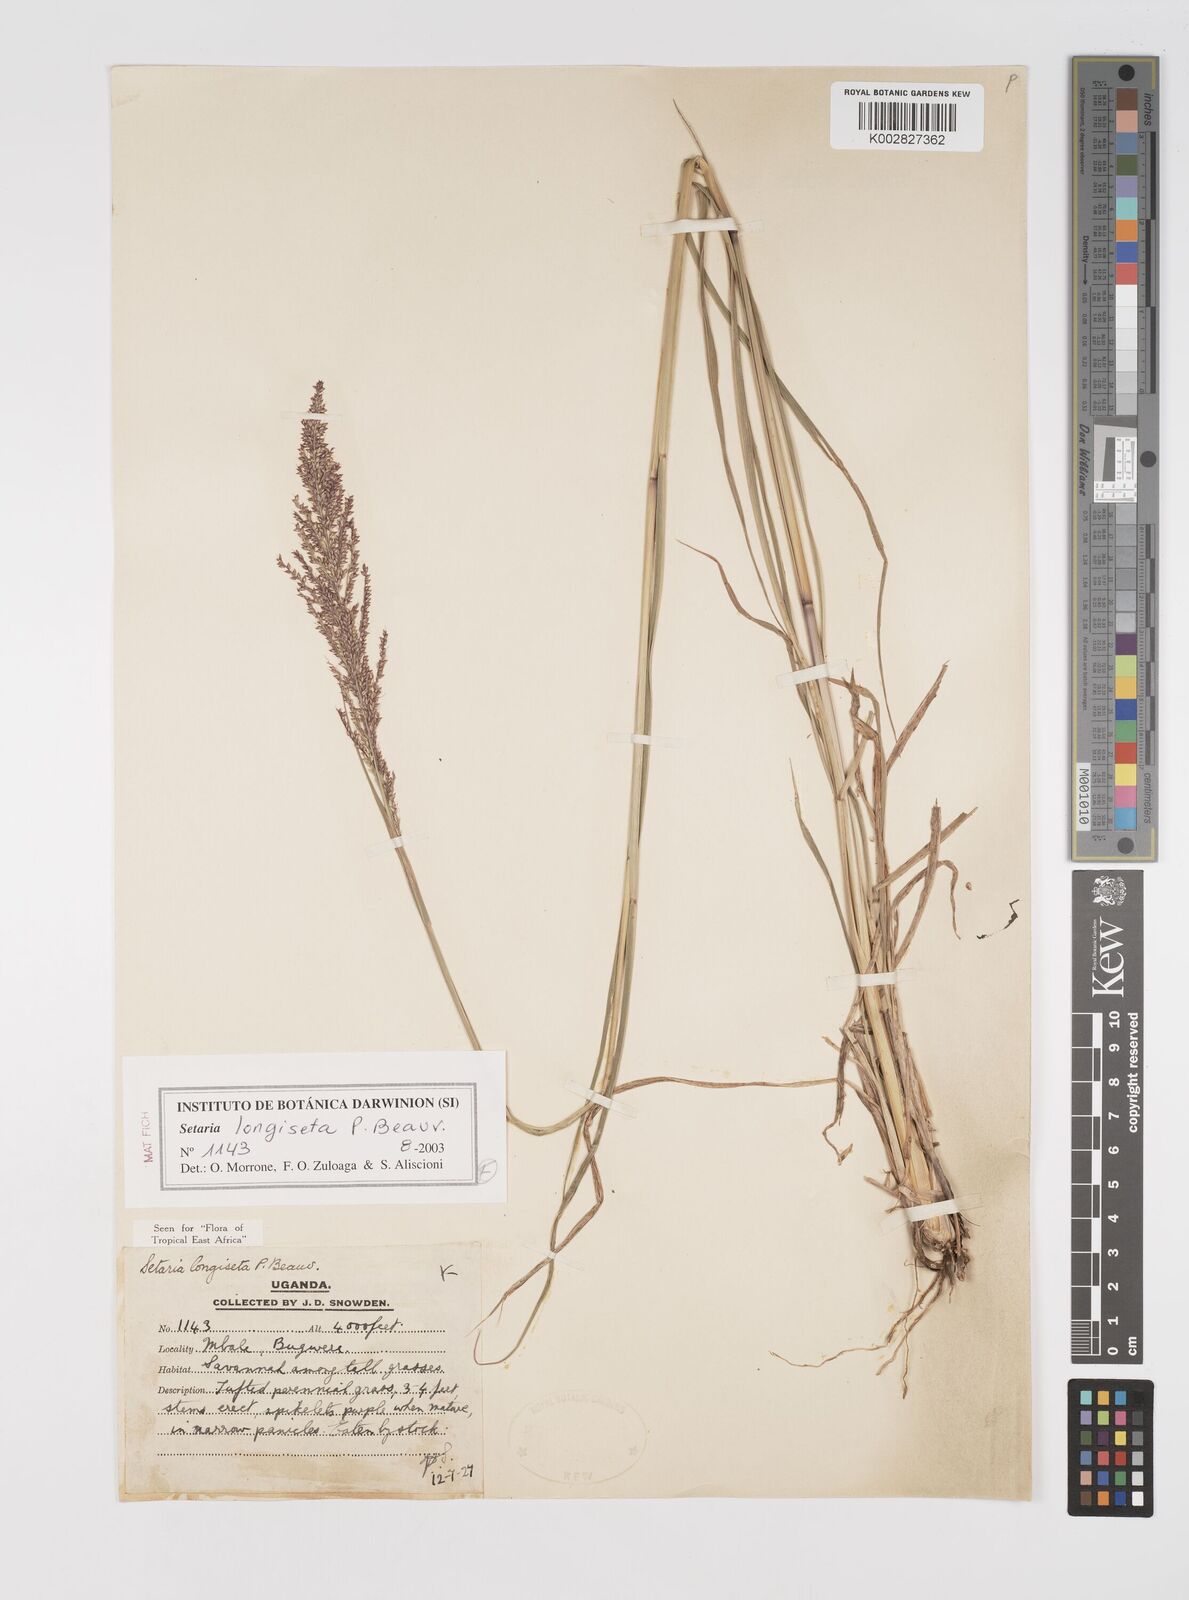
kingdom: Plantae
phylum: Tracheophyta
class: Liliopsida
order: Poales
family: Poaceae
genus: Setaria
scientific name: Setaria longiseta
